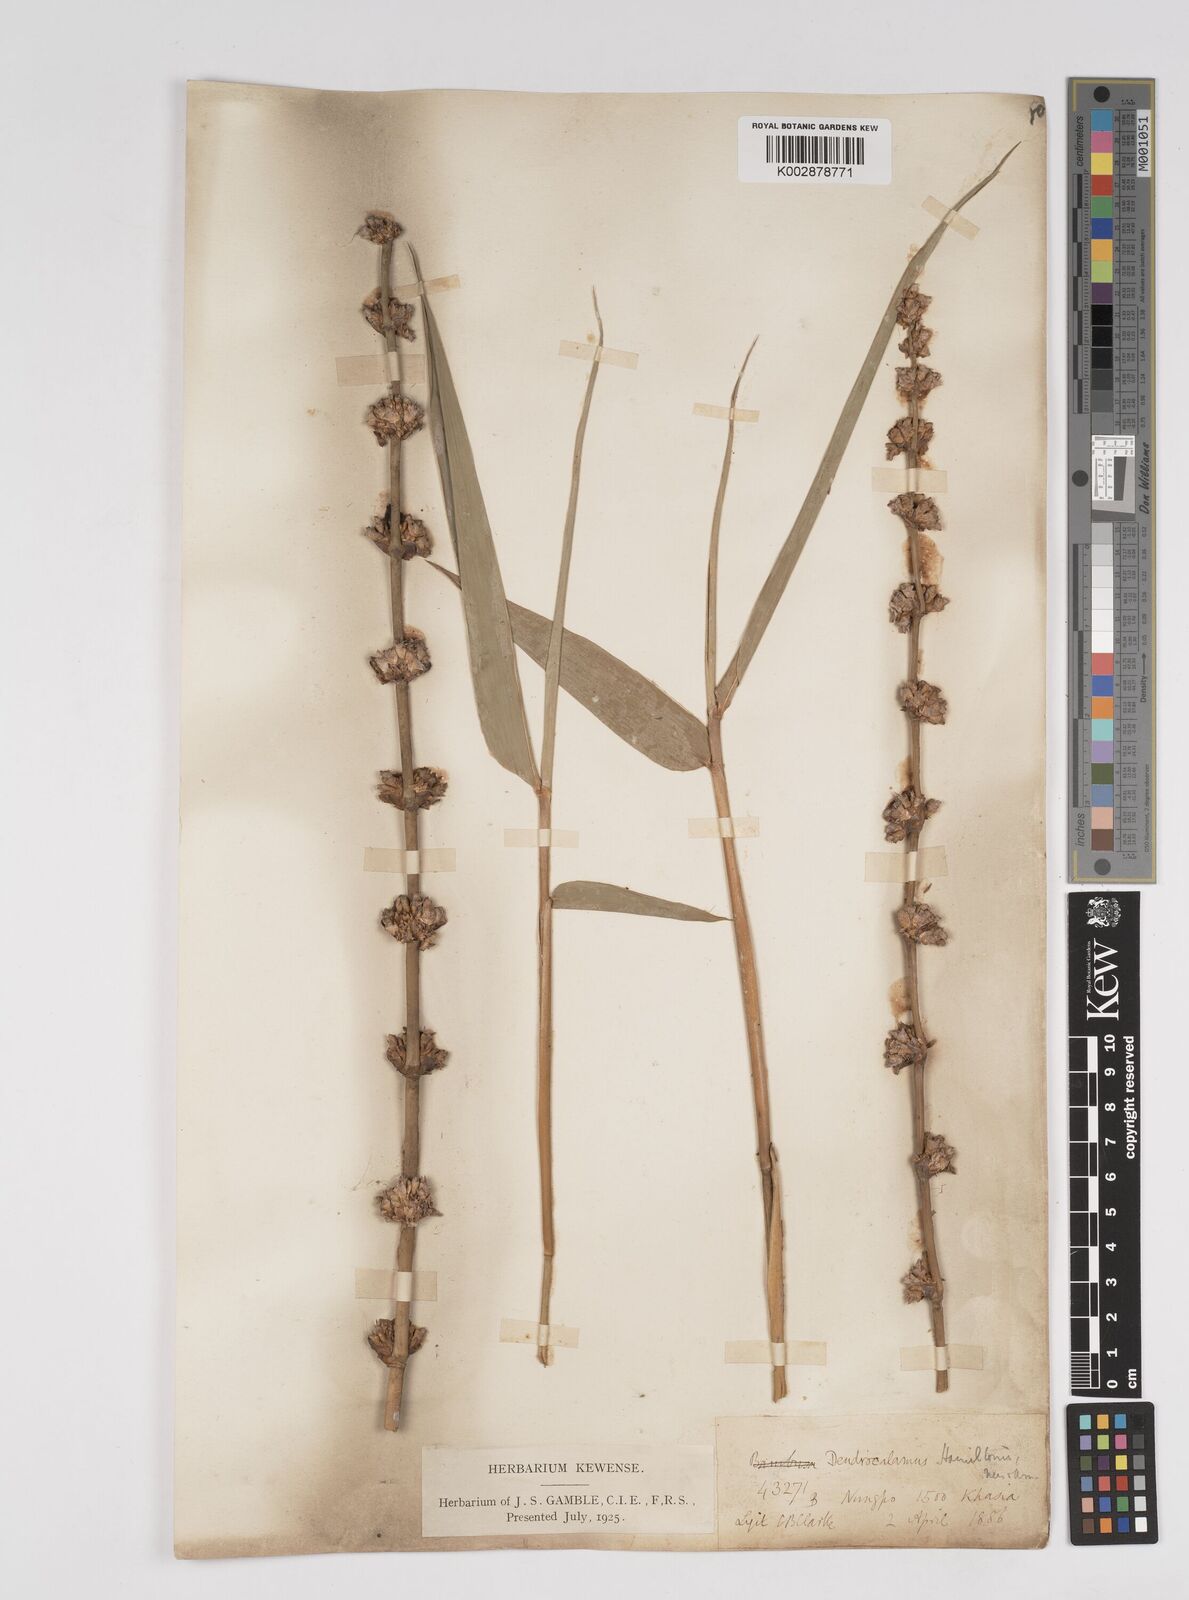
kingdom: Plantae
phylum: Tracheophyta
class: Liliopsida
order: Poales
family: Poaceae
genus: Dendrocalamus
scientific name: Dendrocalamus hamiltonii
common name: Tama bamboo
